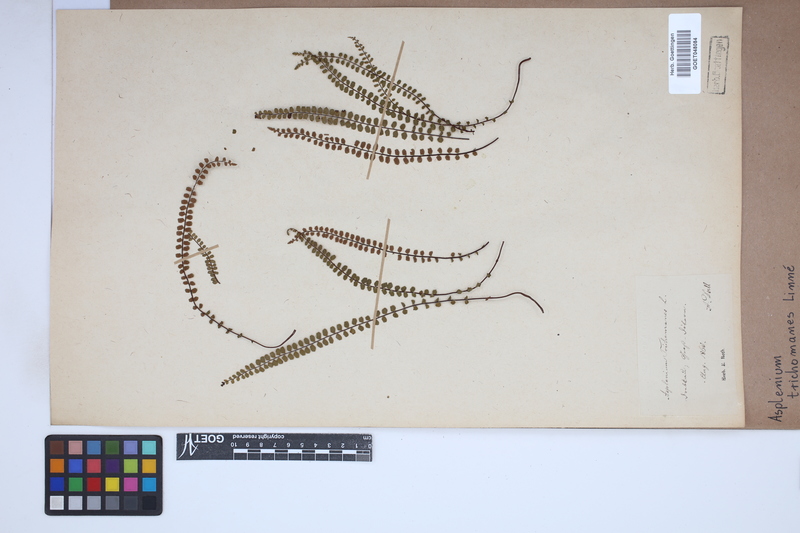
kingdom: Plantae
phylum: Tracheophyta
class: Polypodiopsida
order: Polypodiales
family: Aspleniaceae
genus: Asplenium
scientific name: Asplenium trichomanes
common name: Maidenhair spleenwort
